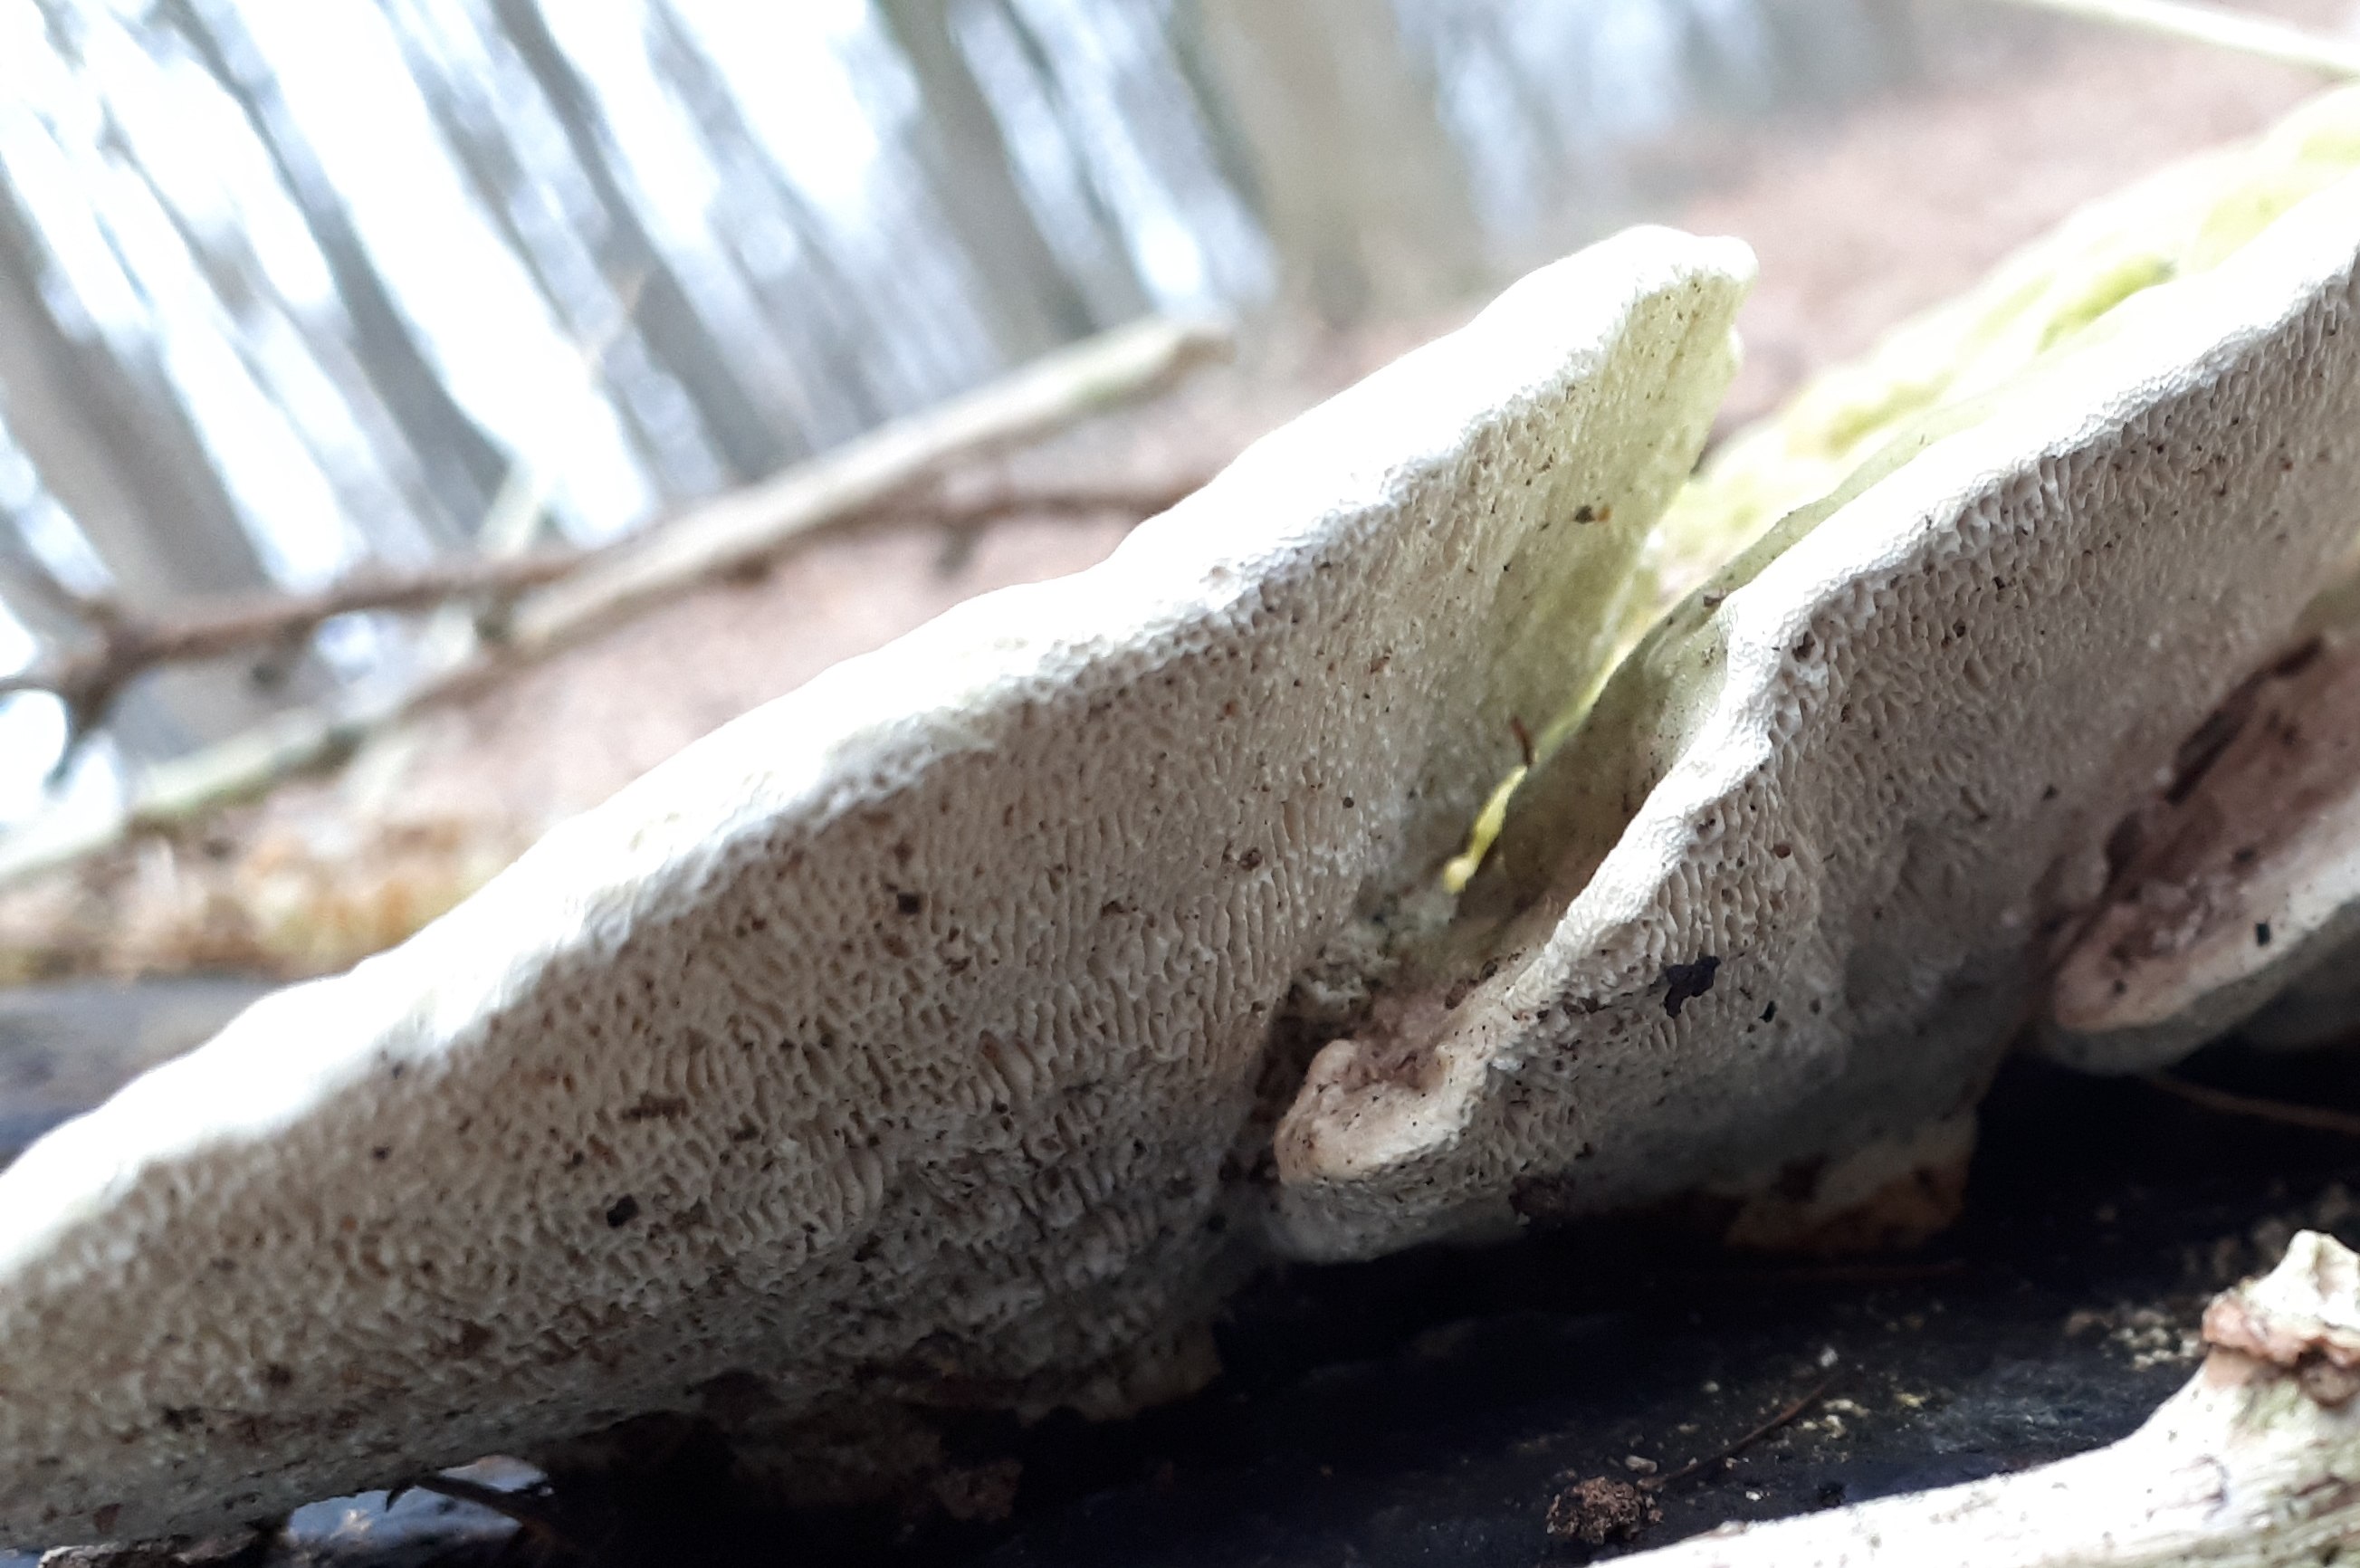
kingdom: Fungi
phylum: Basidiomycota
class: Agaricomycetes
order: Polyporales
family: Polyporaceae
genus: Trametes
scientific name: Trametes gibbosa
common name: puklet læderporesvamp
